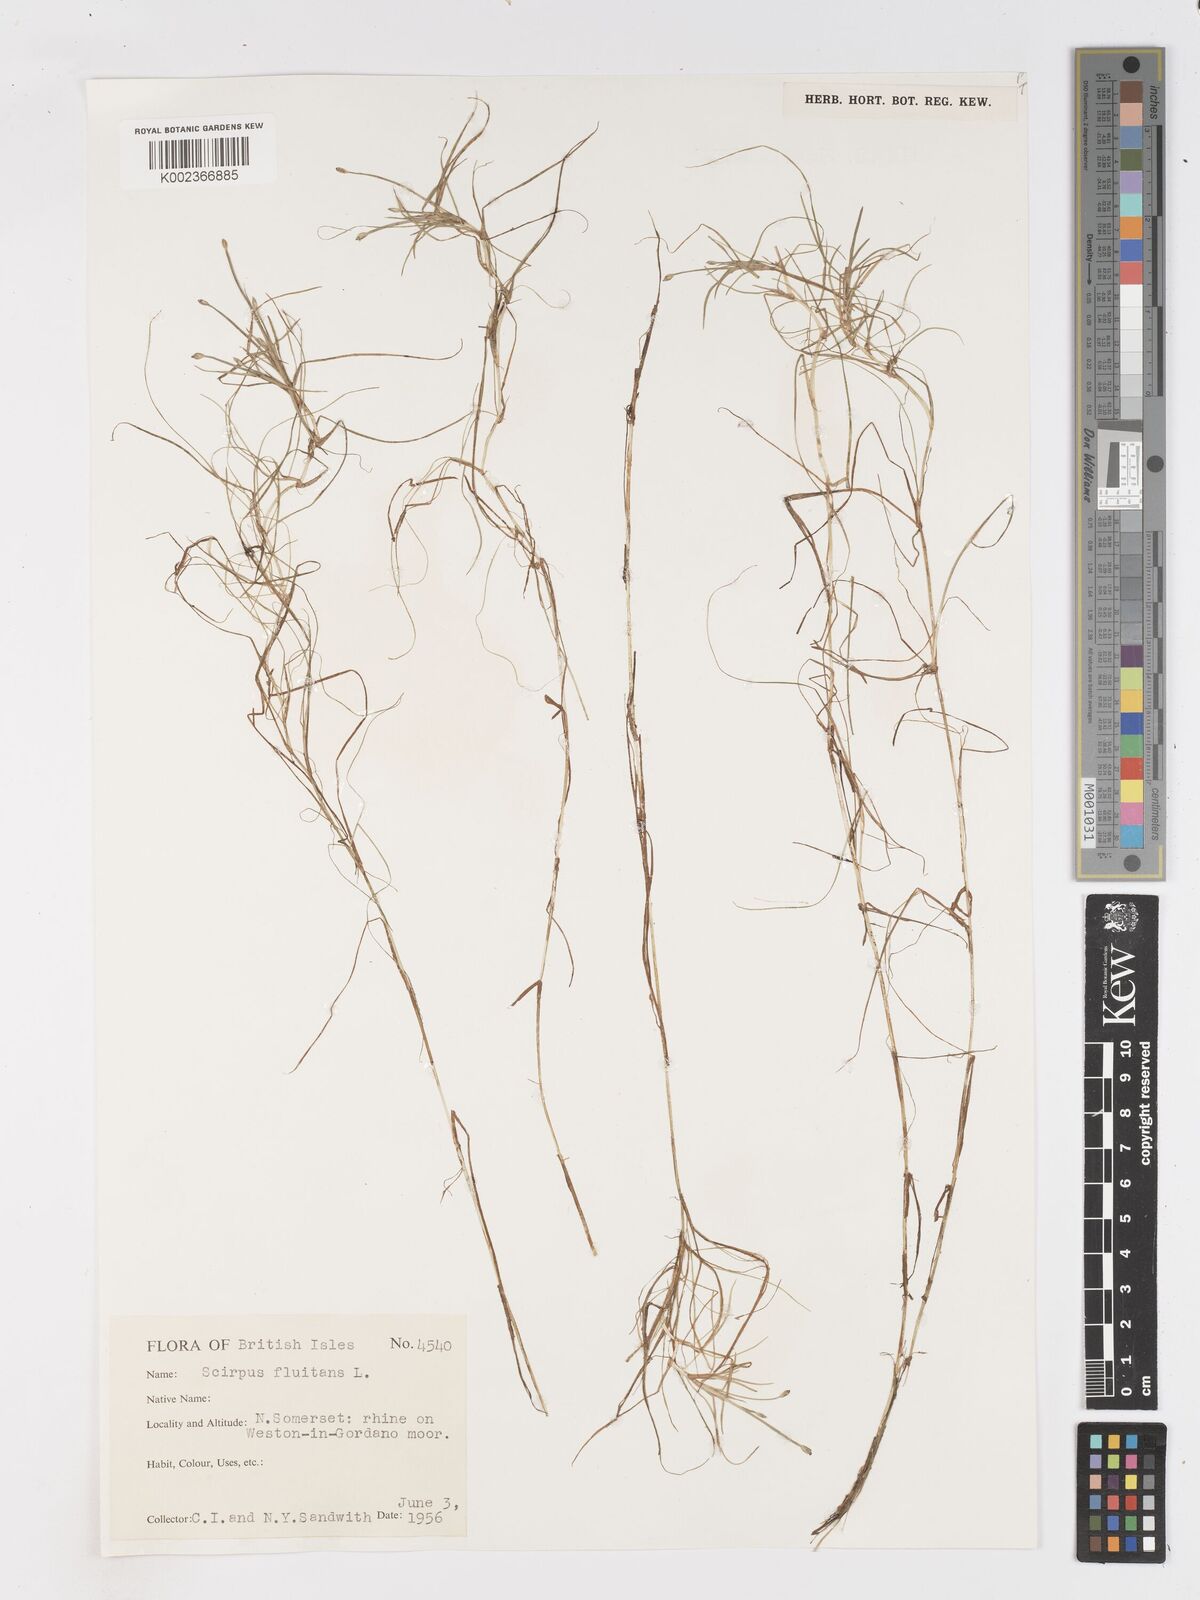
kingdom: Plantae
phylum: Tracheophyta
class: Liliopsida
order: Poales
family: Cyperaceae
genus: Isolepis
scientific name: Isolepis fluitans
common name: Floating club-rush
